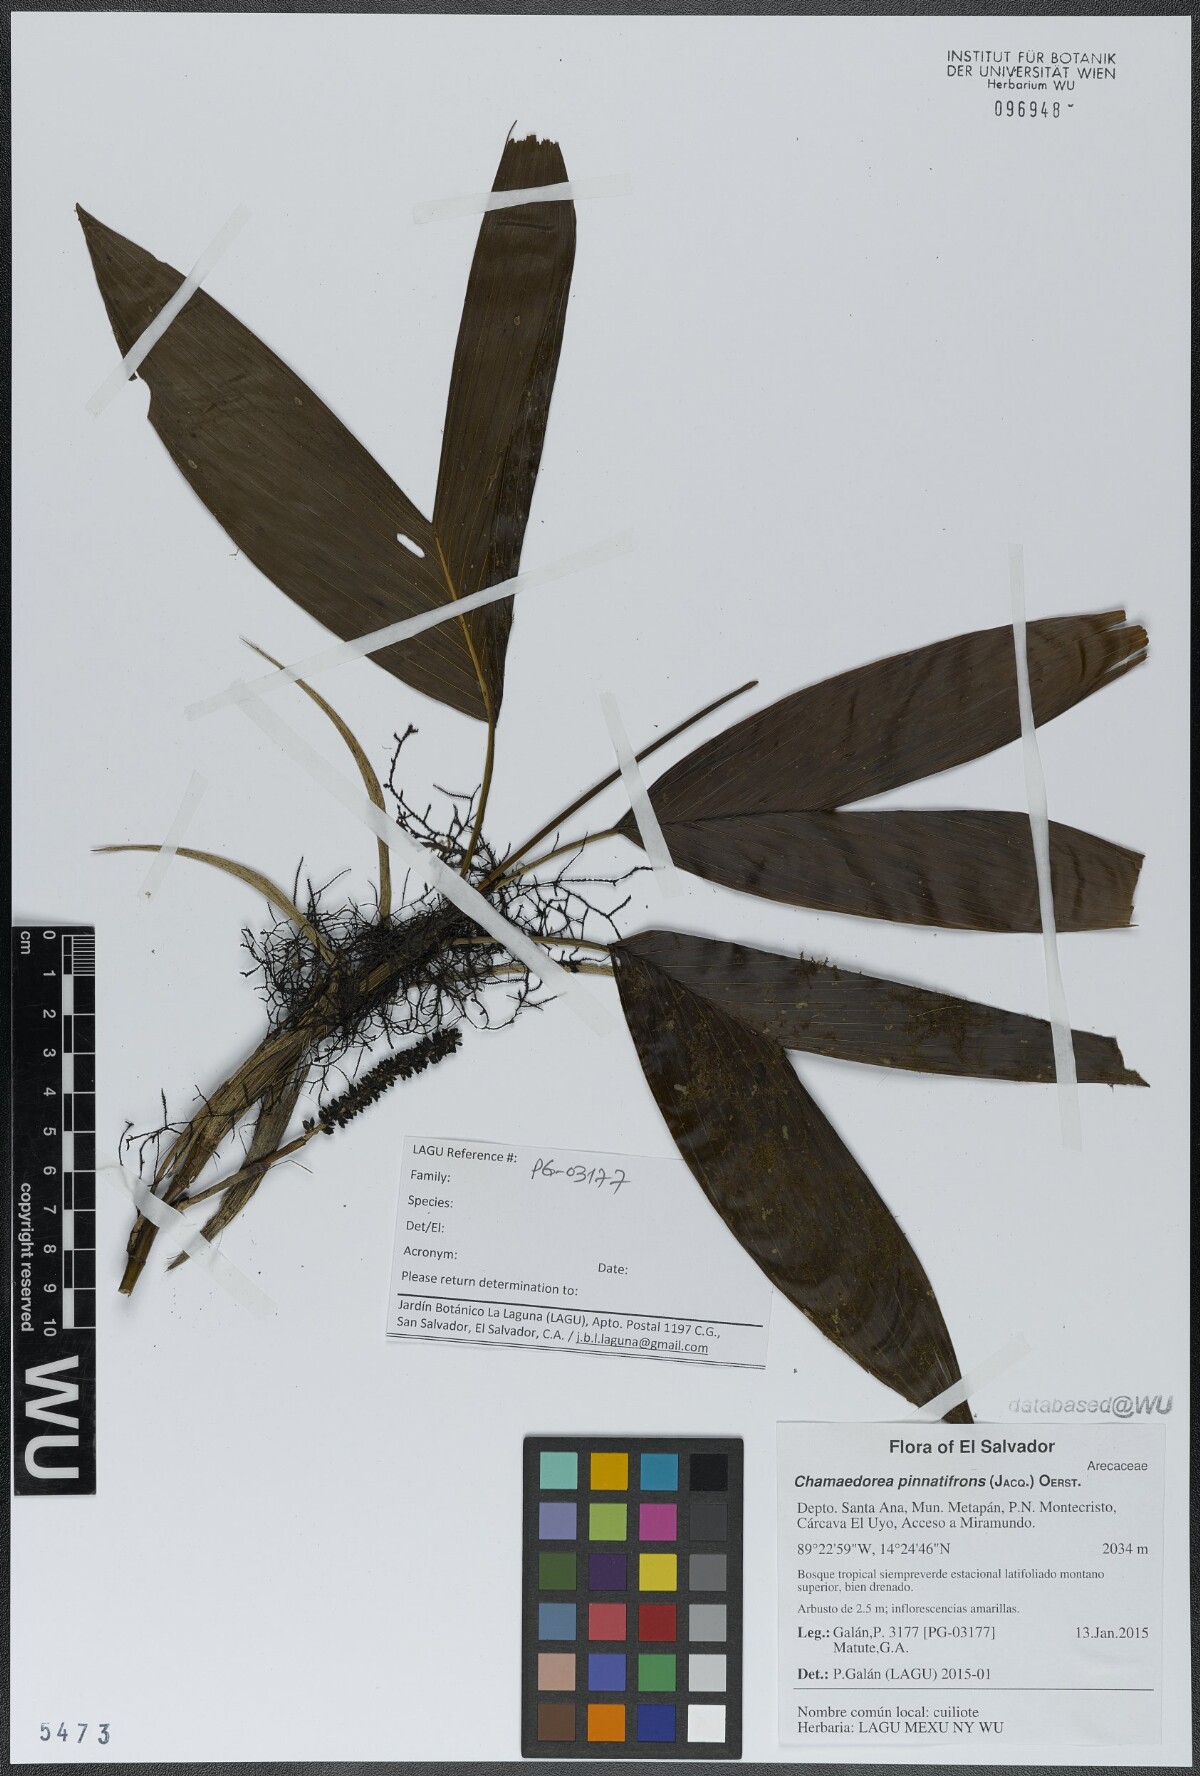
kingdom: Plantae
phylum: Tracheophyta
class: Liliopsida
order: Arecales
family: Arecaceae
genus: Chamaedorea
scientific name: Chamaedorea nubium
